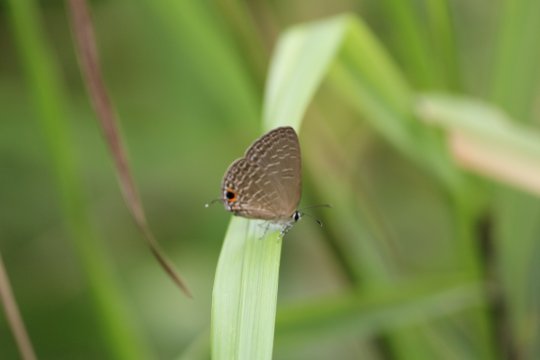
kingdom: Animalia
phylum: Arthropoda
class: Insecta
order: Lepidoptera
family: Lycaenidae
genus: Prosotas
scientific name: Prosotas nora
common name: Common Line Blue
